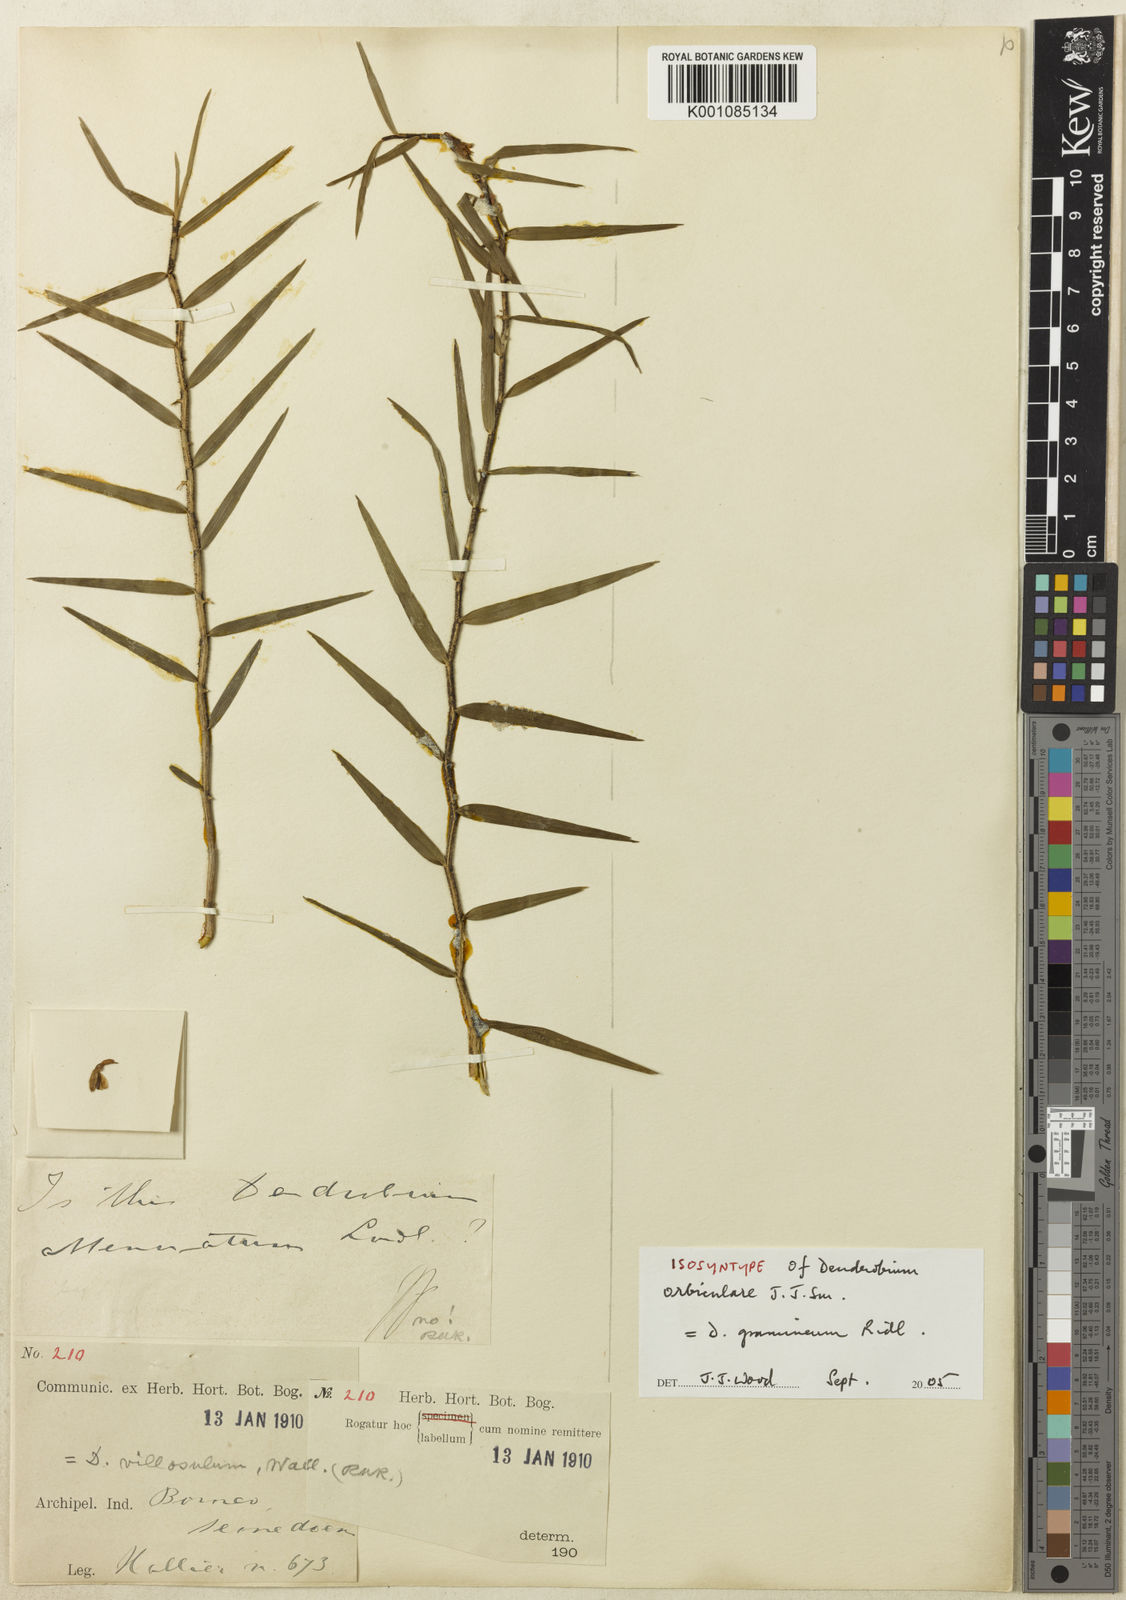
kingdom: Plantae
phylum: Tracheophyta
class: Liliopsida
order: Asparagales
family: Orchidaceae
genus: Dendrobium
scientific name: Dendrobium gramineum
